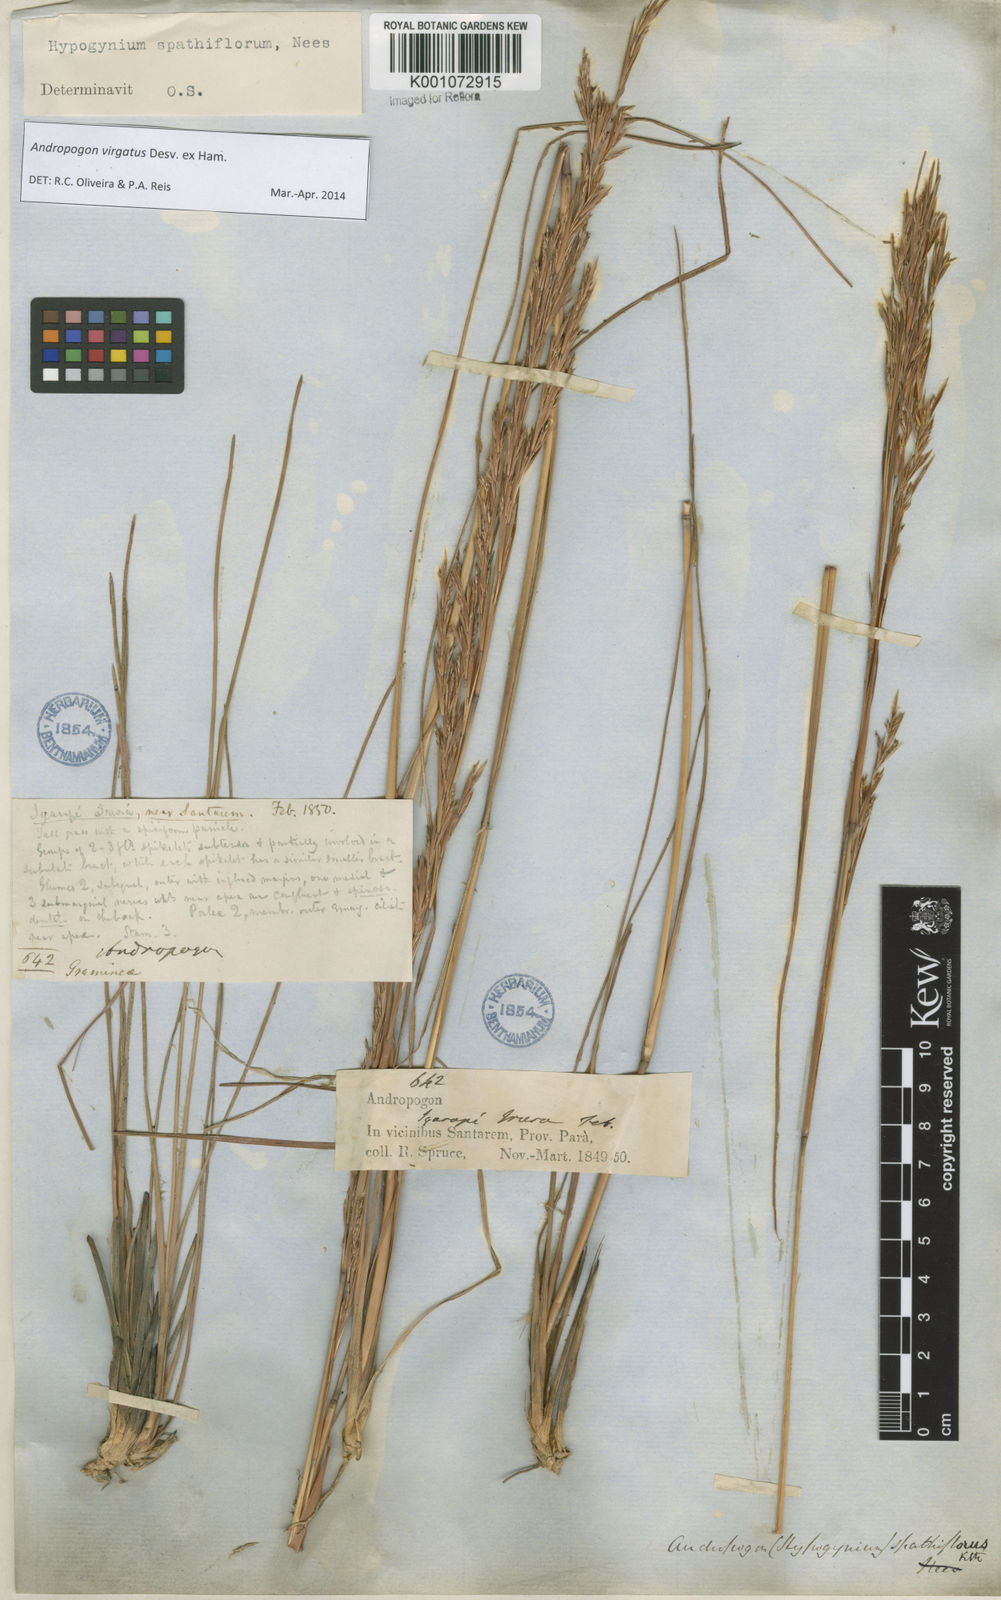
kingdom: Plantae
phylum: Tracheophyta
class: Liliopsida
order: Poales
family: Poaceae
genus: Andropogon
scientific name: Andropogon virgatus
